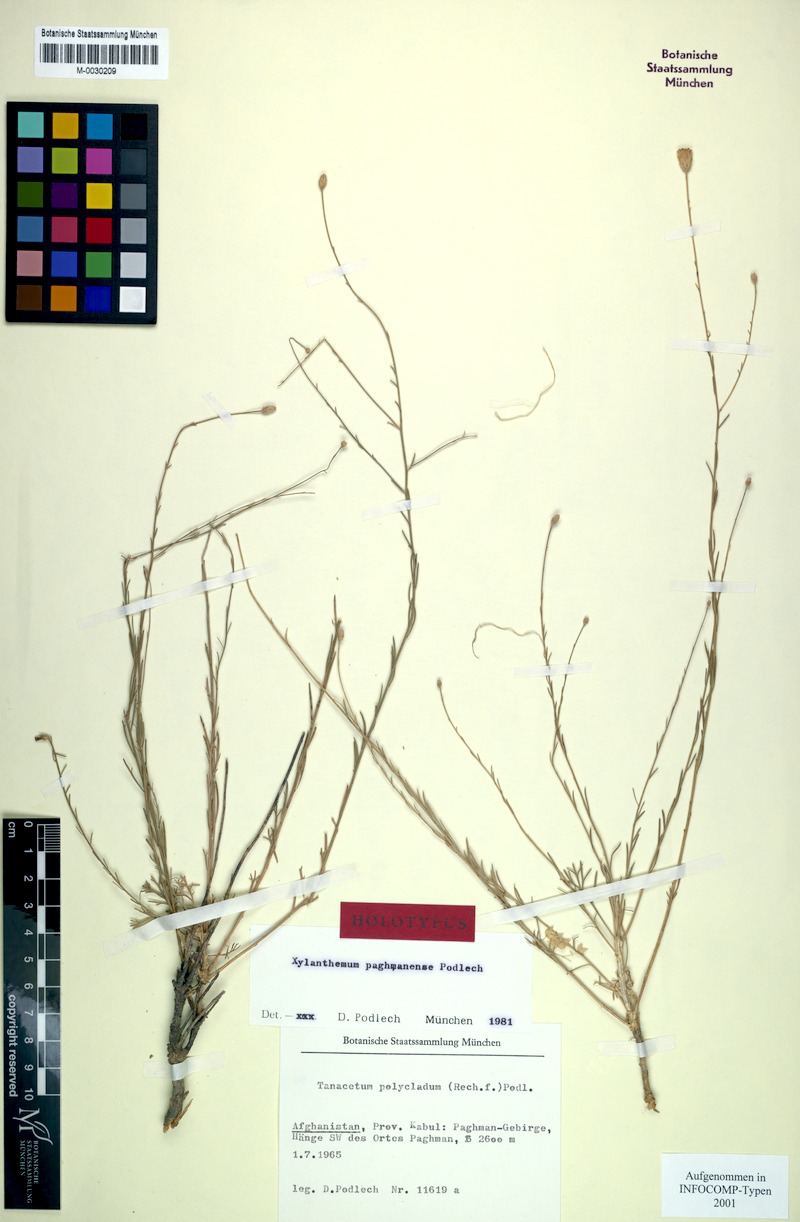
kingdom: Plantae
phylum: Tracheophyta
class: Magnoliopsida
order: Asterales
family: Asteraceae
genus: Xylanthemum
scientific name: Xylanthemum paghmanense
